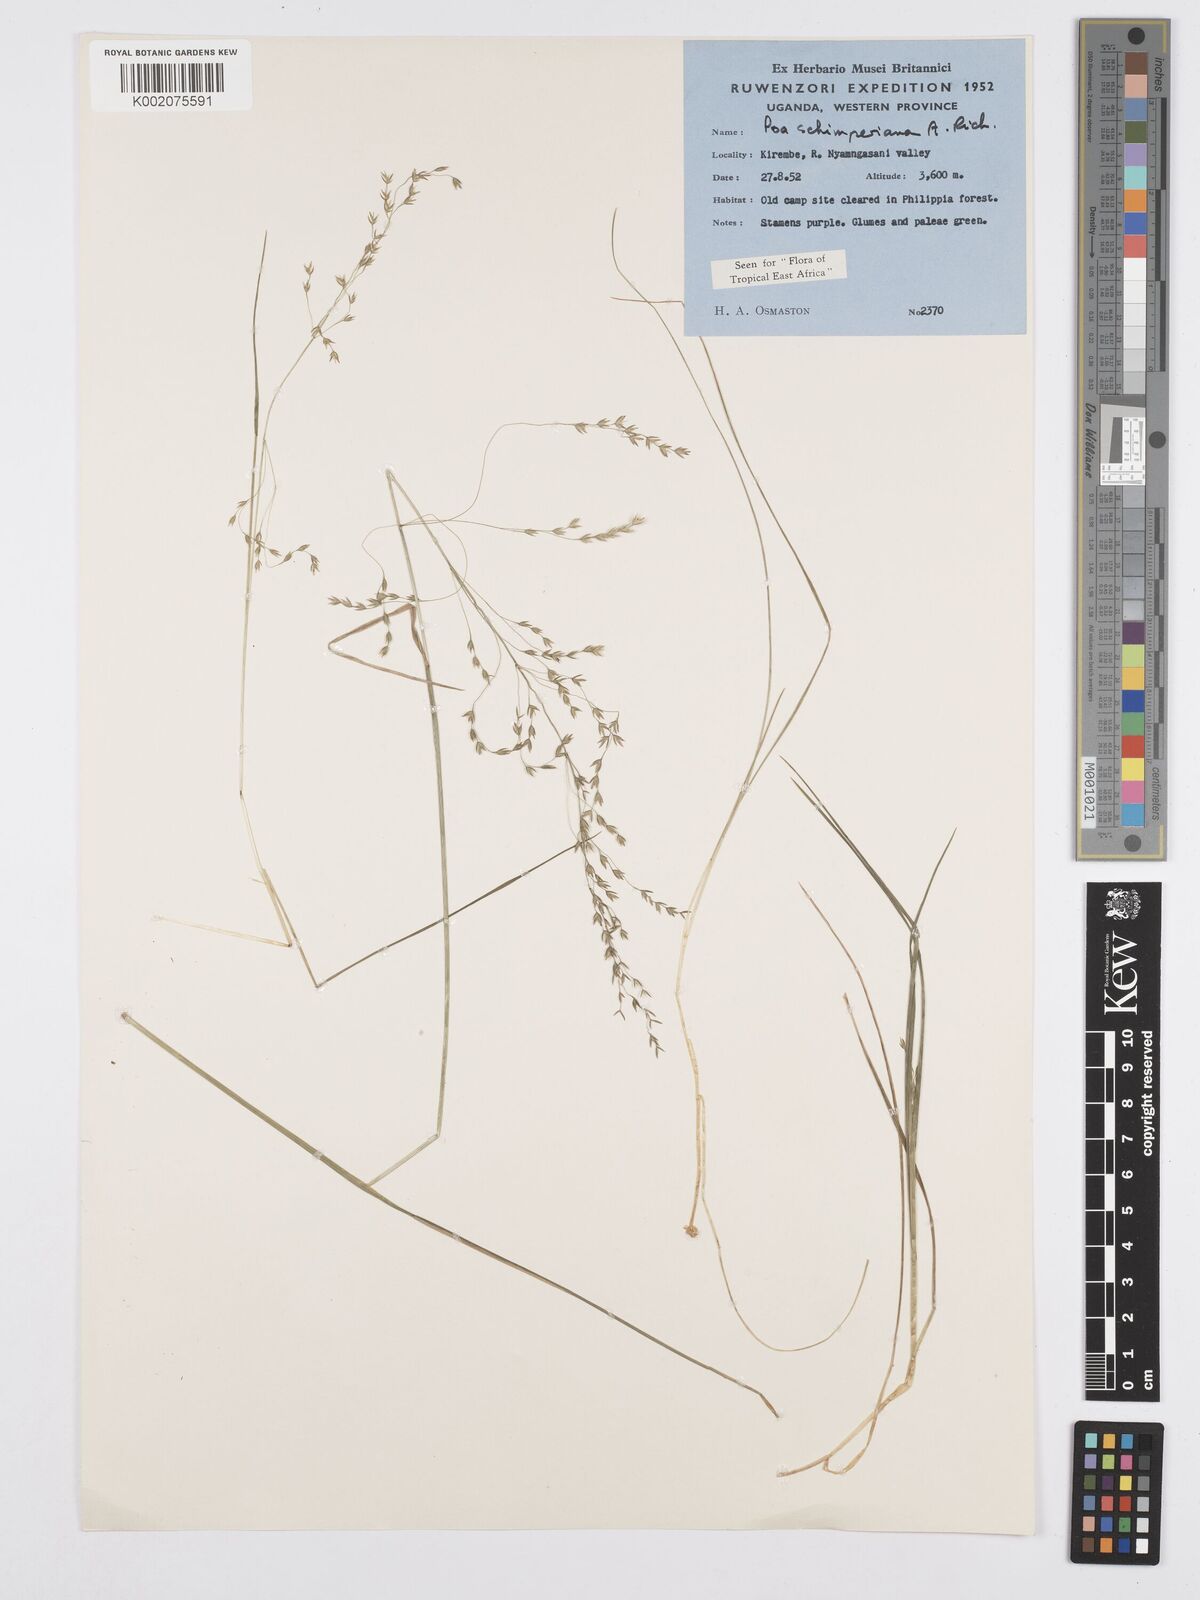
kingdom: Plantae
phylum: Tracheophyta
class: Liliopsida
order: Poales
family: Poaceae
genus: Poa
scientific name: Poa schimperiana
